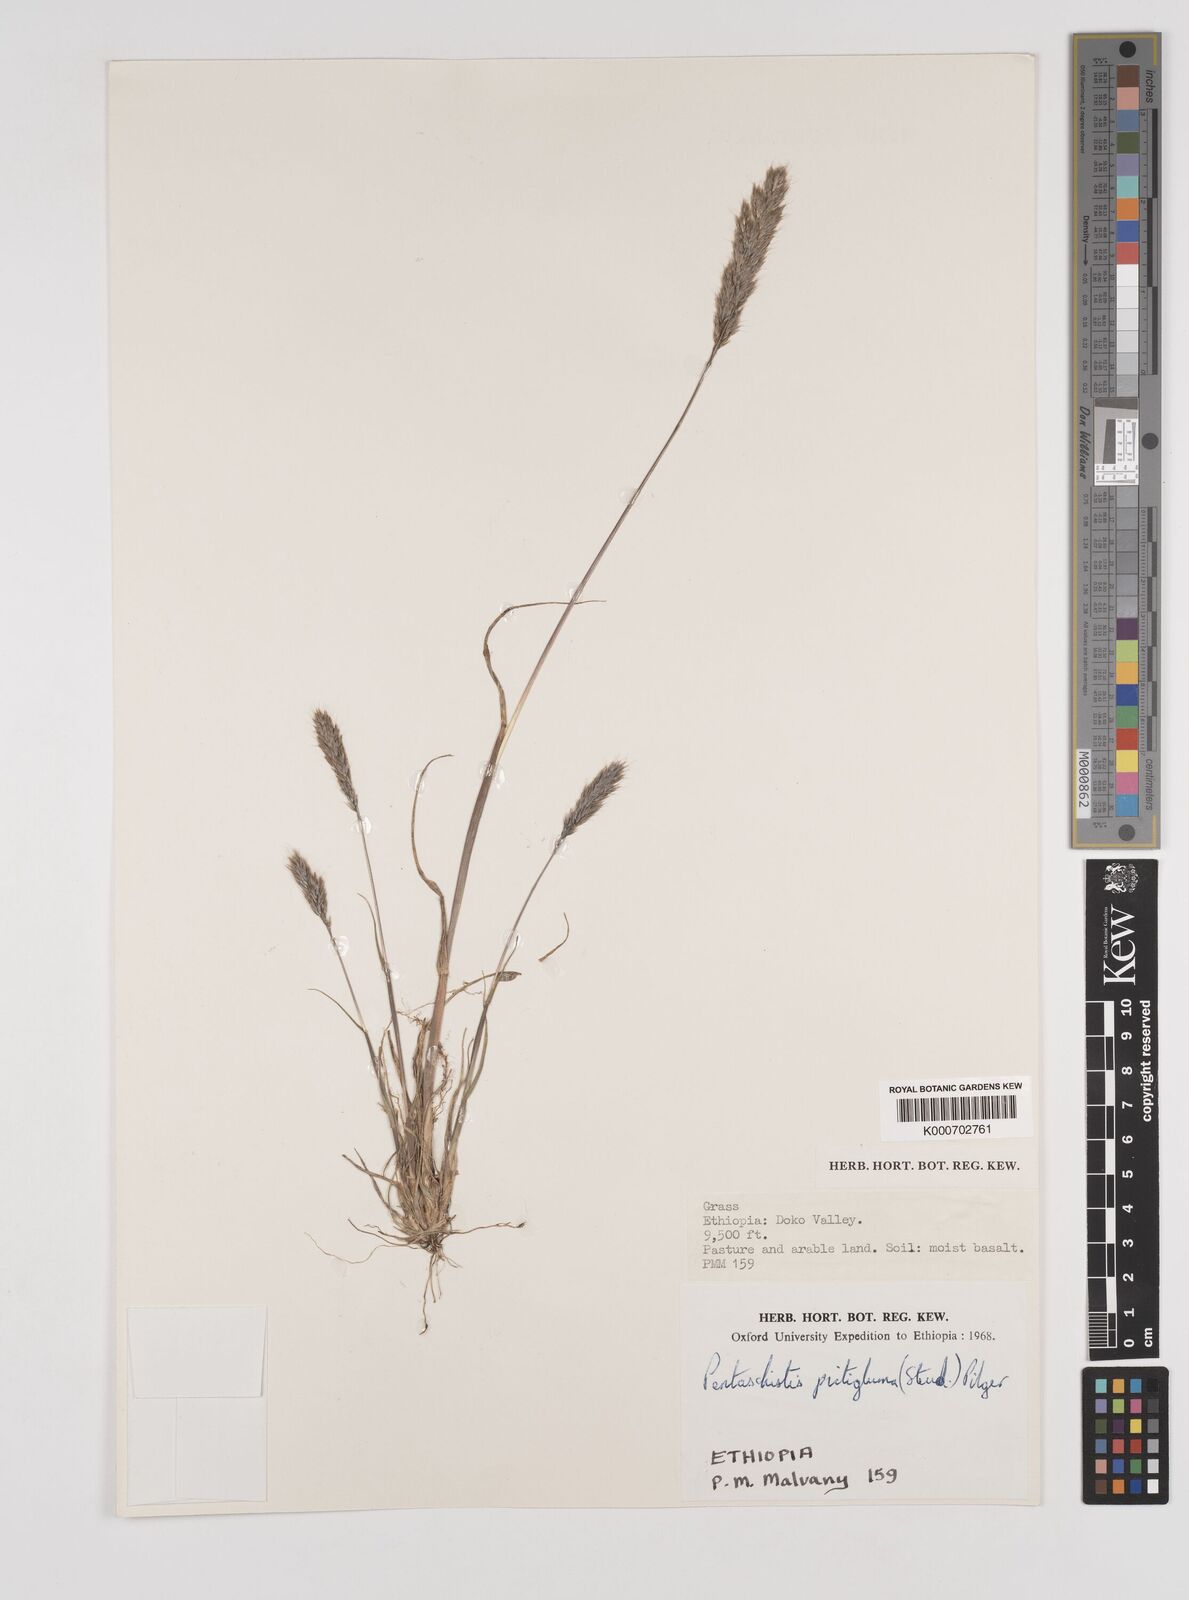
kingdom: Plantae
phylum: Tracheophyta
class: Liliopsida
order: Poales
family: Poaceae
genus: Pentameris
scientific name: Pentameris pictigluma
